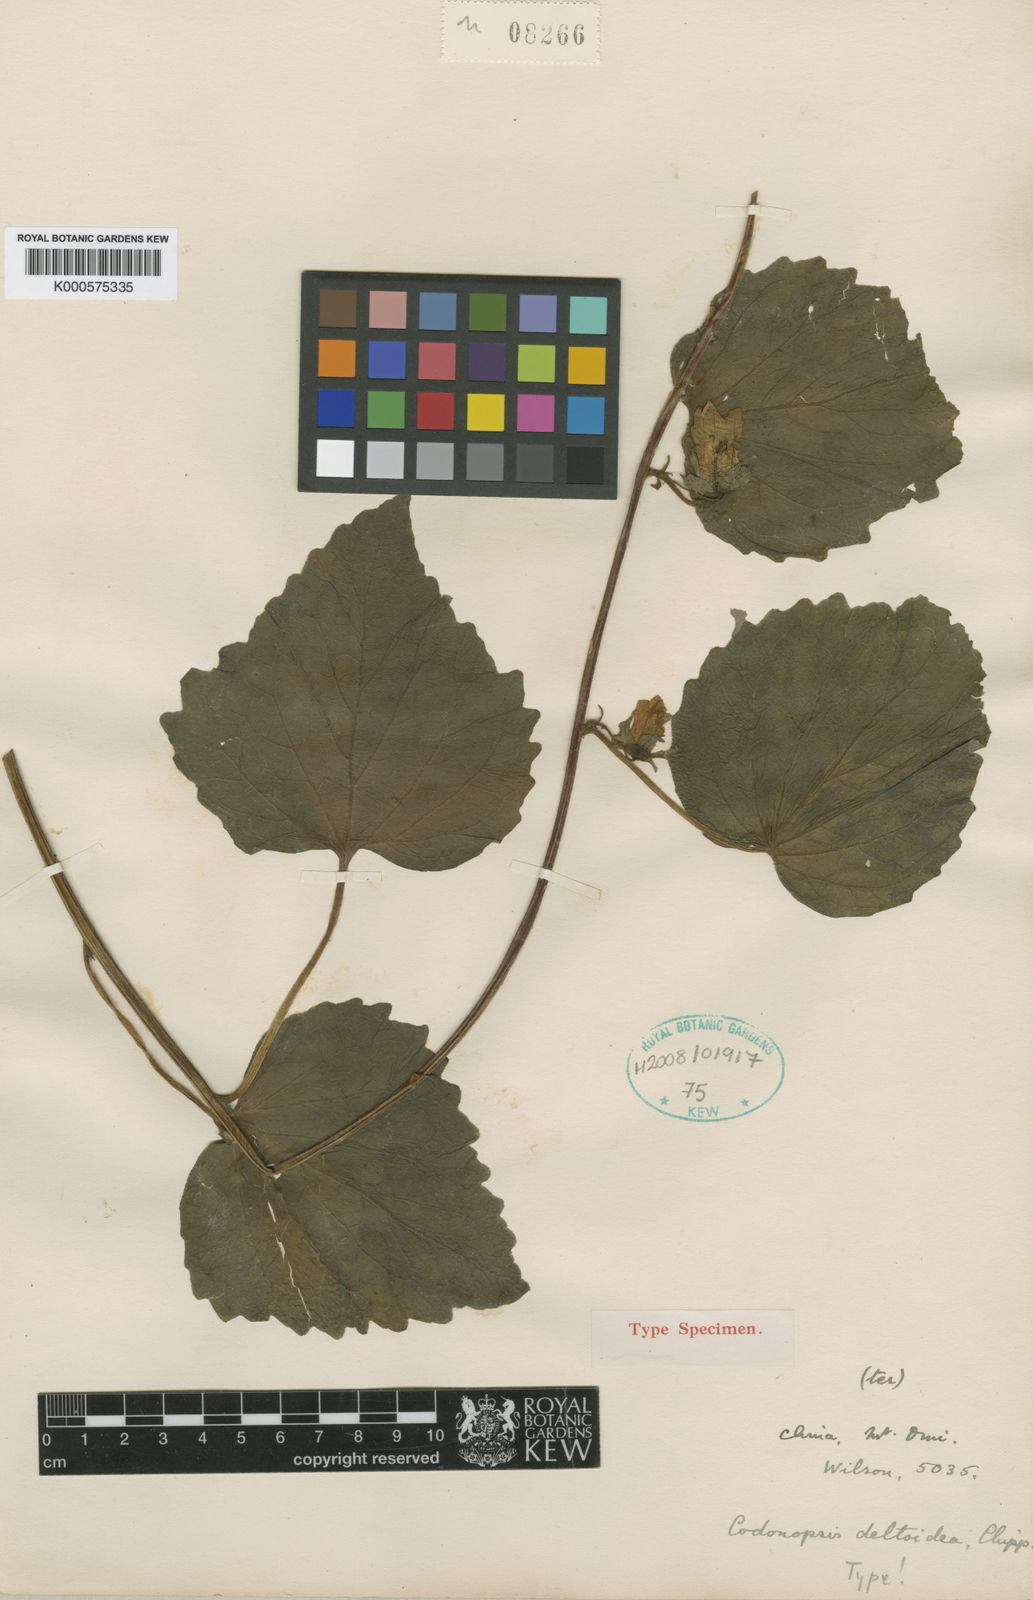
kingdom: Plantae
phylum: Tracheophyta
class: Magnoliopsida
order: Asterales
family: Campanulaceae
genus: Codonopsis
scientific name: Codonopsis deltoidea
